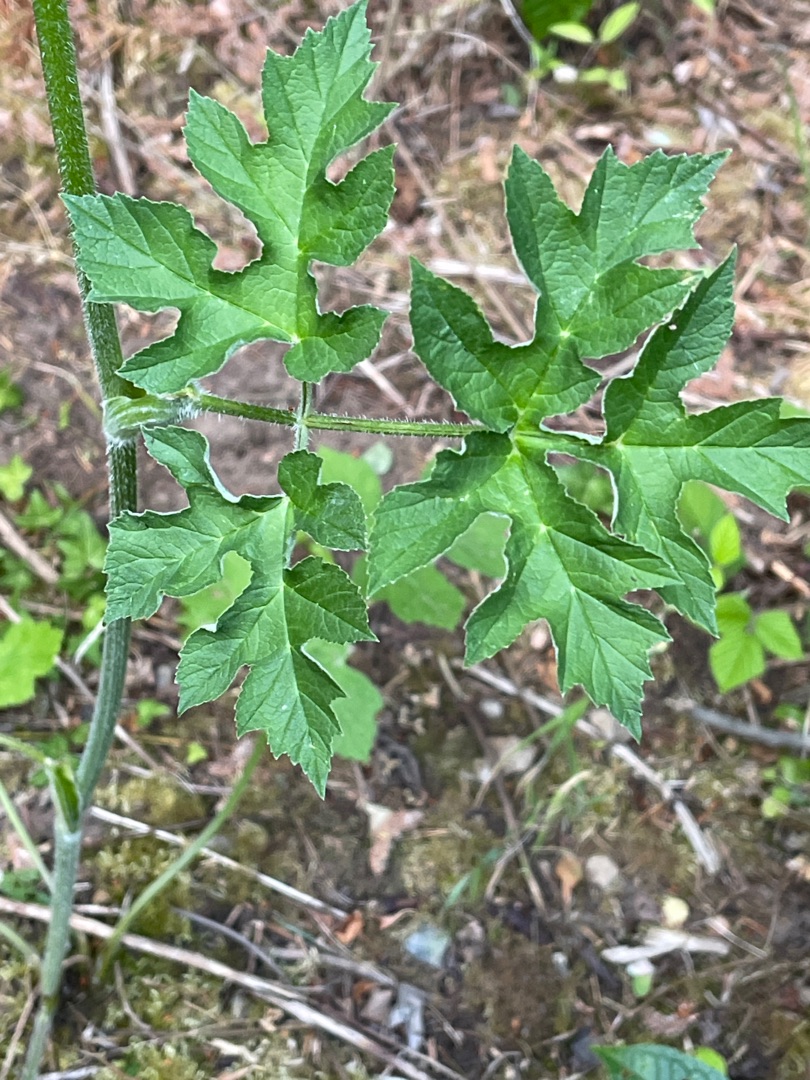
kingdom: Plantae
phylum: Tracheophyta
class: Magnoliopsida
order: Apiales
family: Apiaceae
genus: Heracleum
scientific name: Heracleum sphondylium
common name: Almindelig bjørneklo
